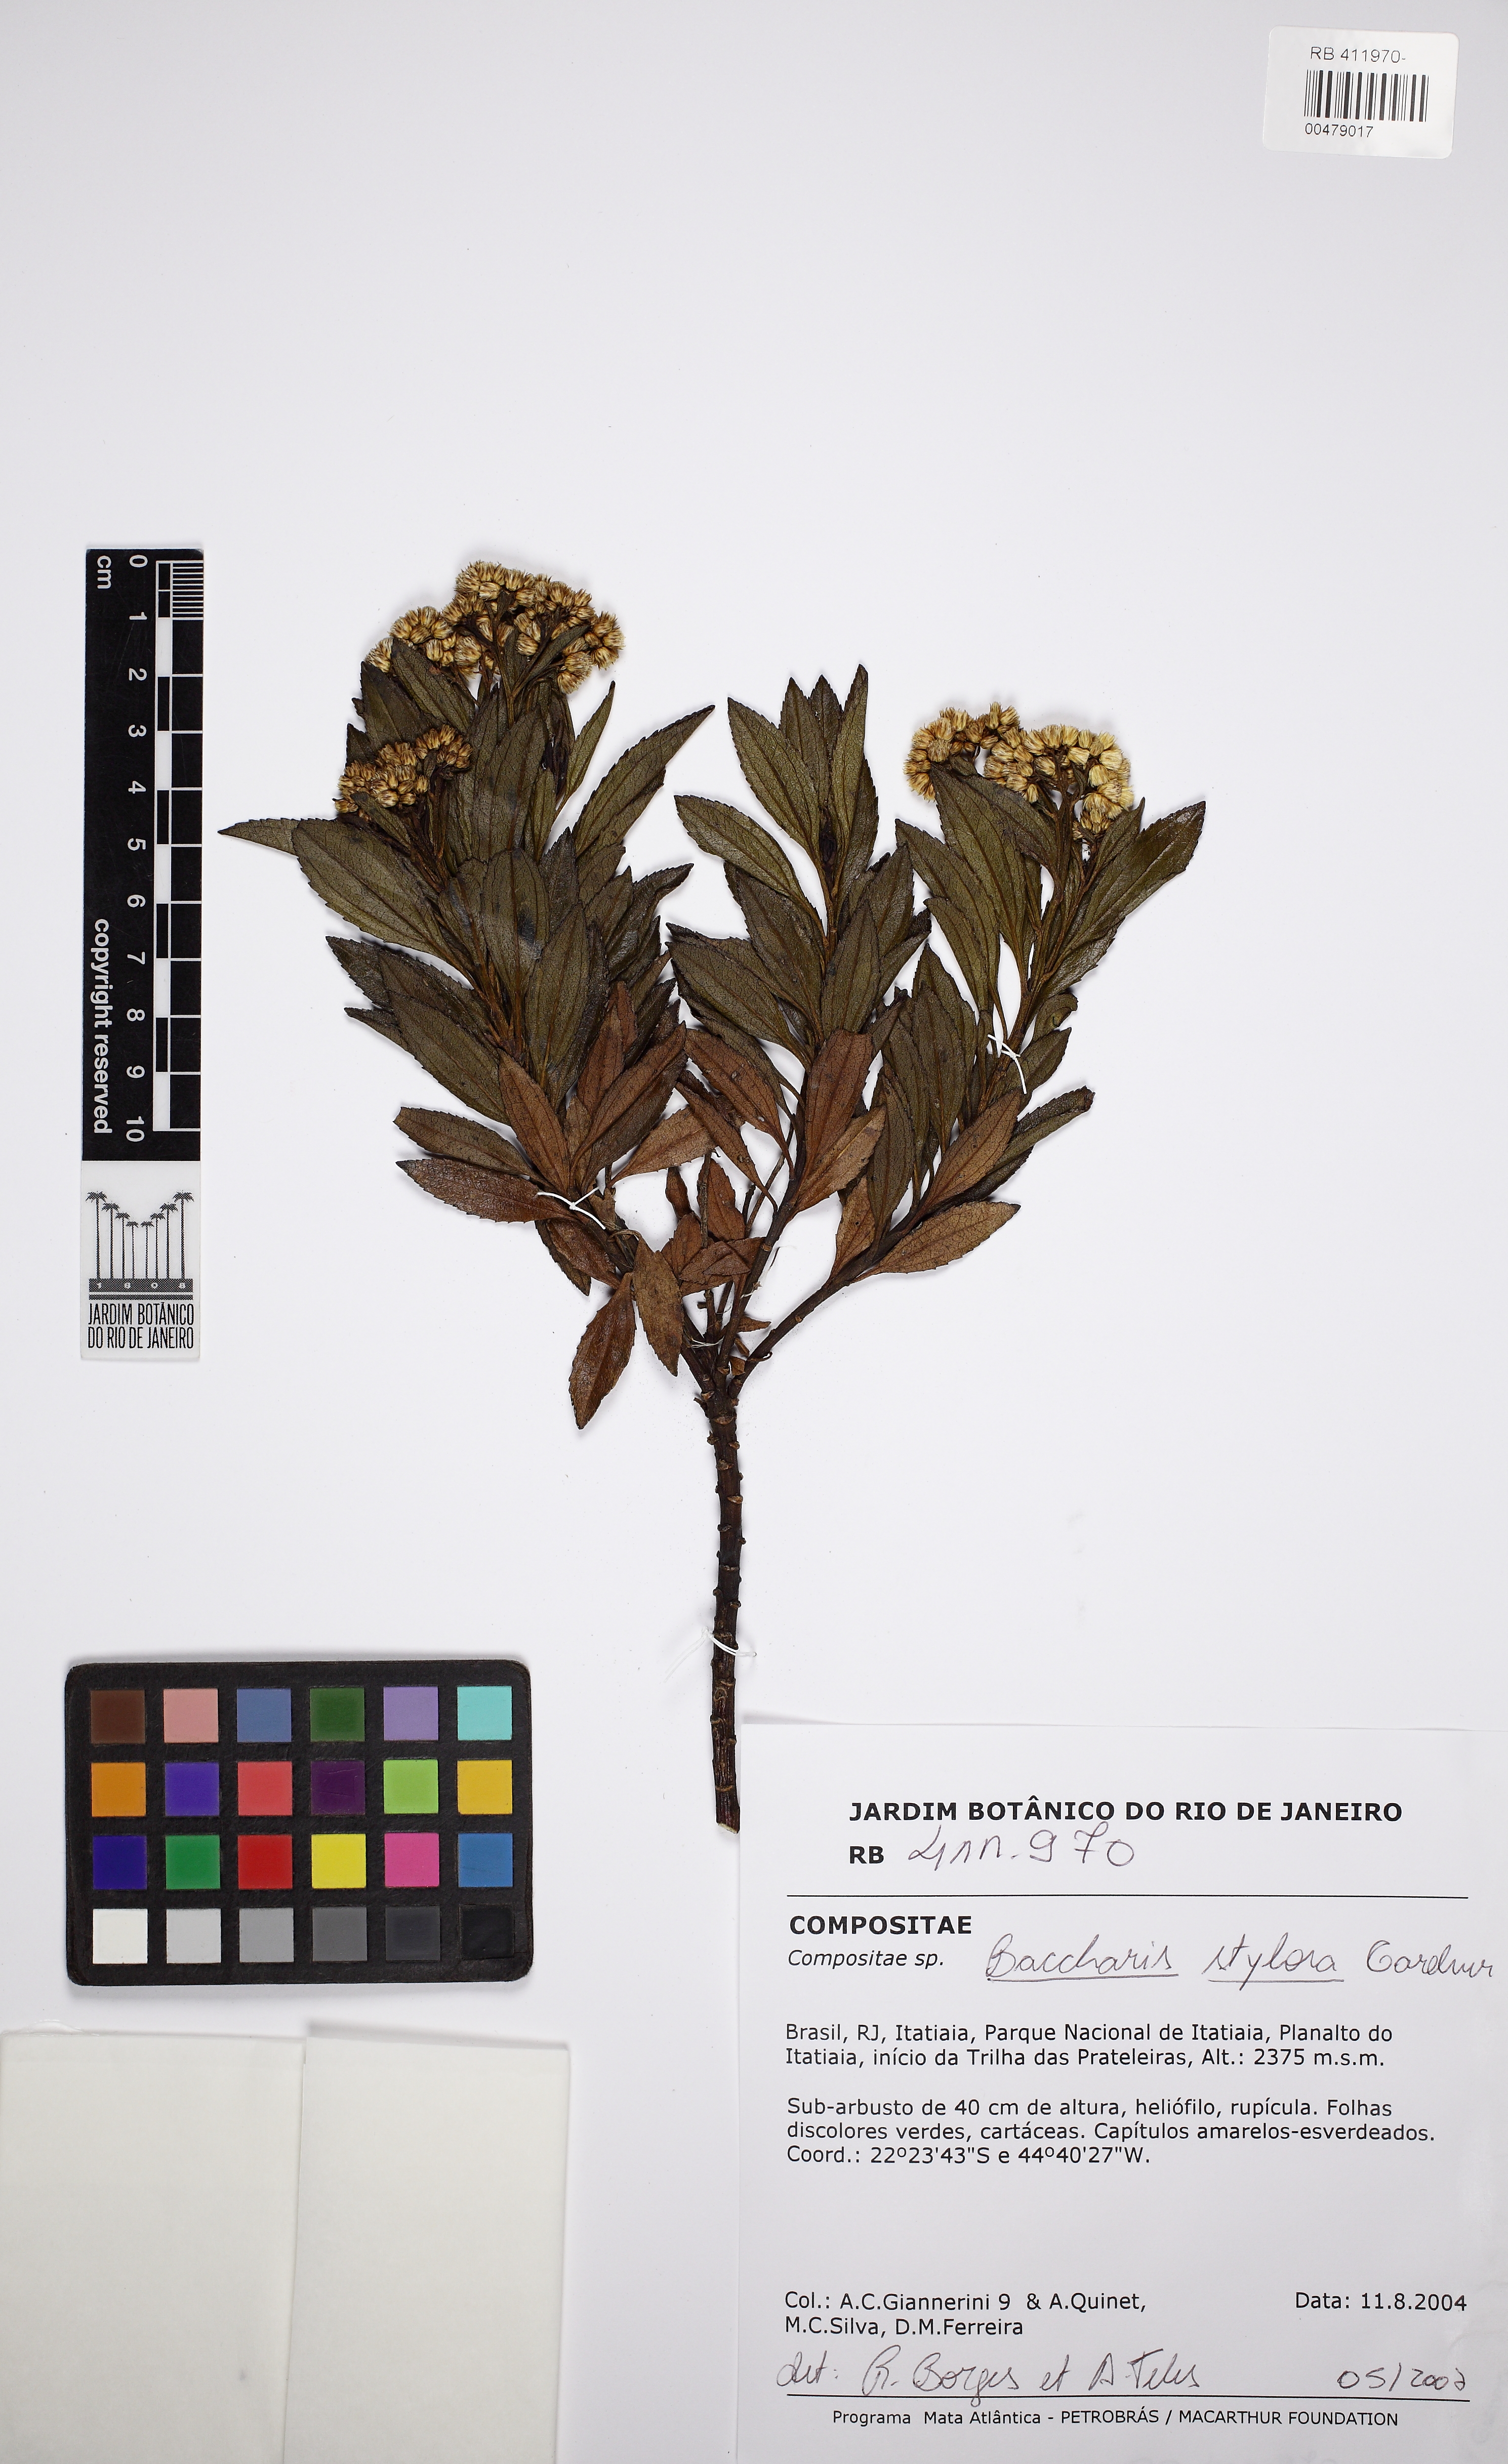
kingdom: Plantae
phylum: Tracheophyta
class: Magnoliopsida
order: Asterales
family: Asteraceae
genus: Baccharis
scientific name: Baccharis stylosa
